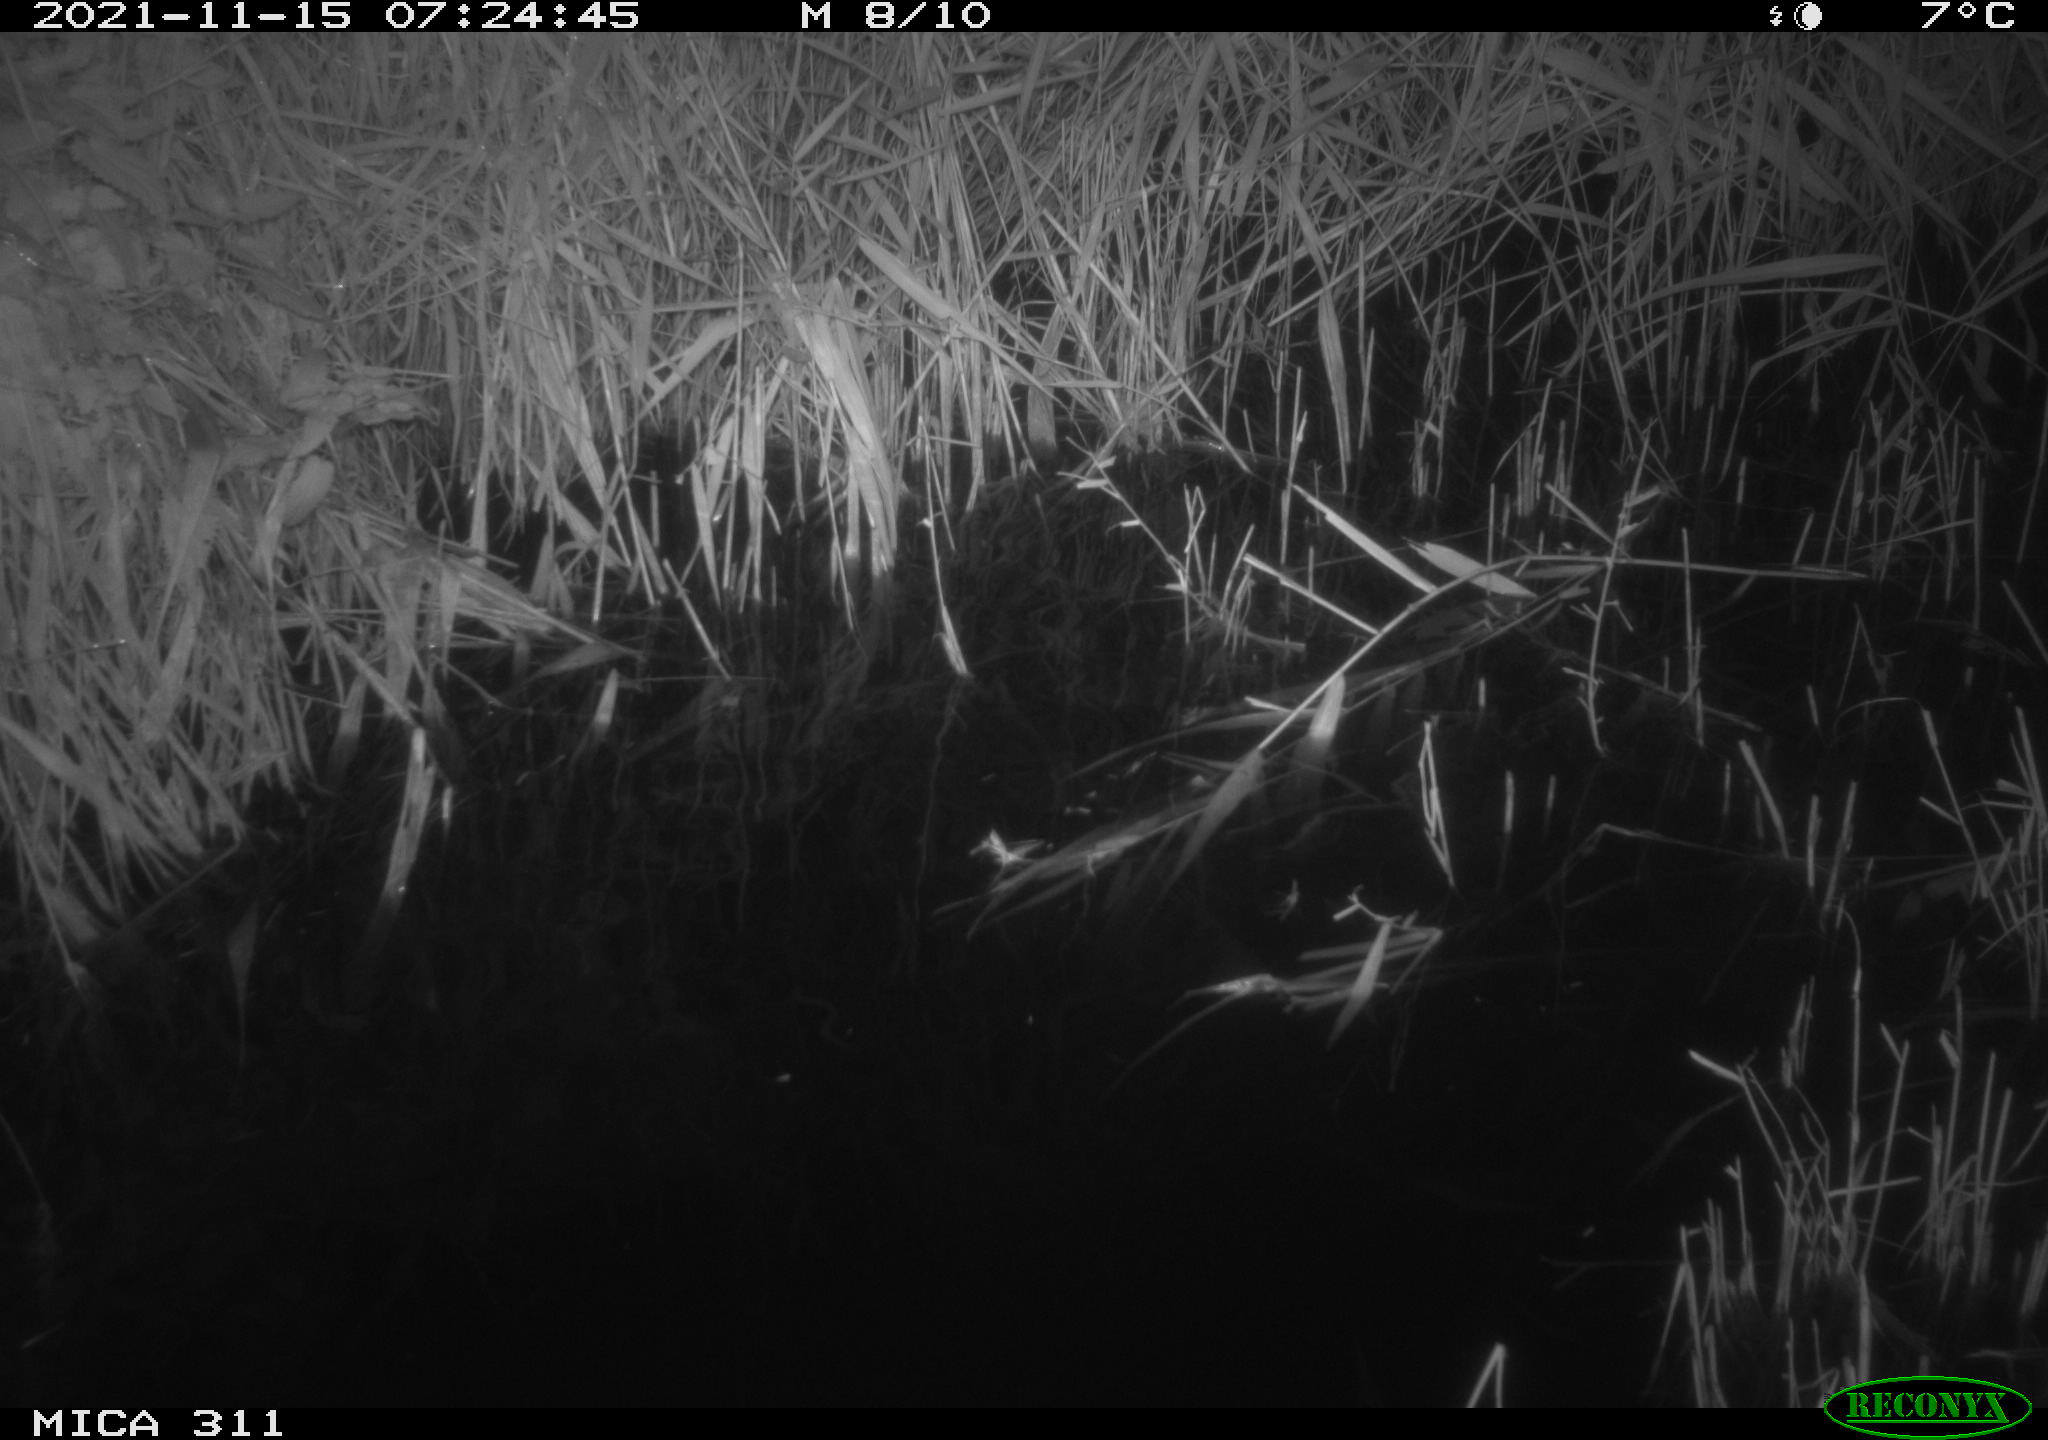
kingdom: Animalia
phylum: Chordata
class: Mammalia
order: Rodentia
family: Muridae
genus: Rattus
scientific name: Rattus norvegicus
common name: Brown rat
